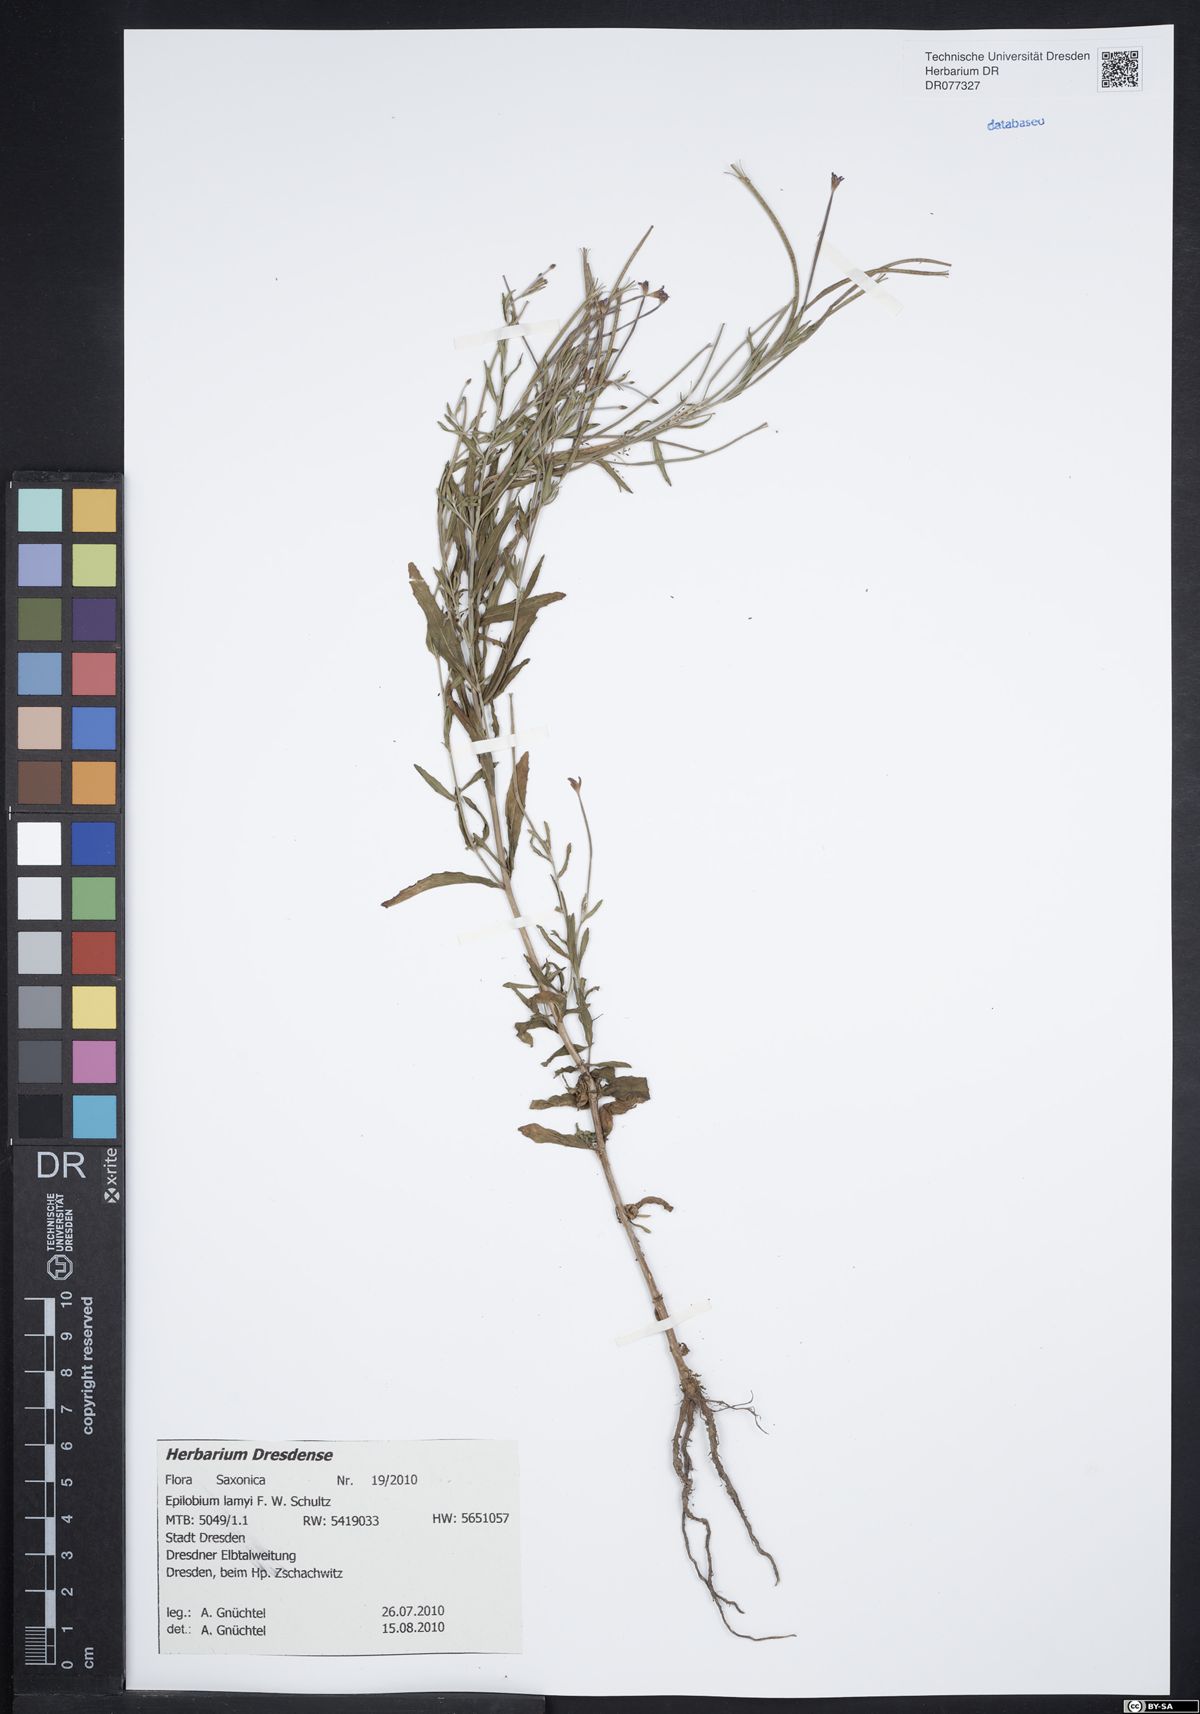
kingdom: Plantae
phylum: Tracheophyta
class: Magnoliopsida
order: Myrtales
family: Onagraceae
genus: Epilobium
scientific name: Epilobium lamyi
